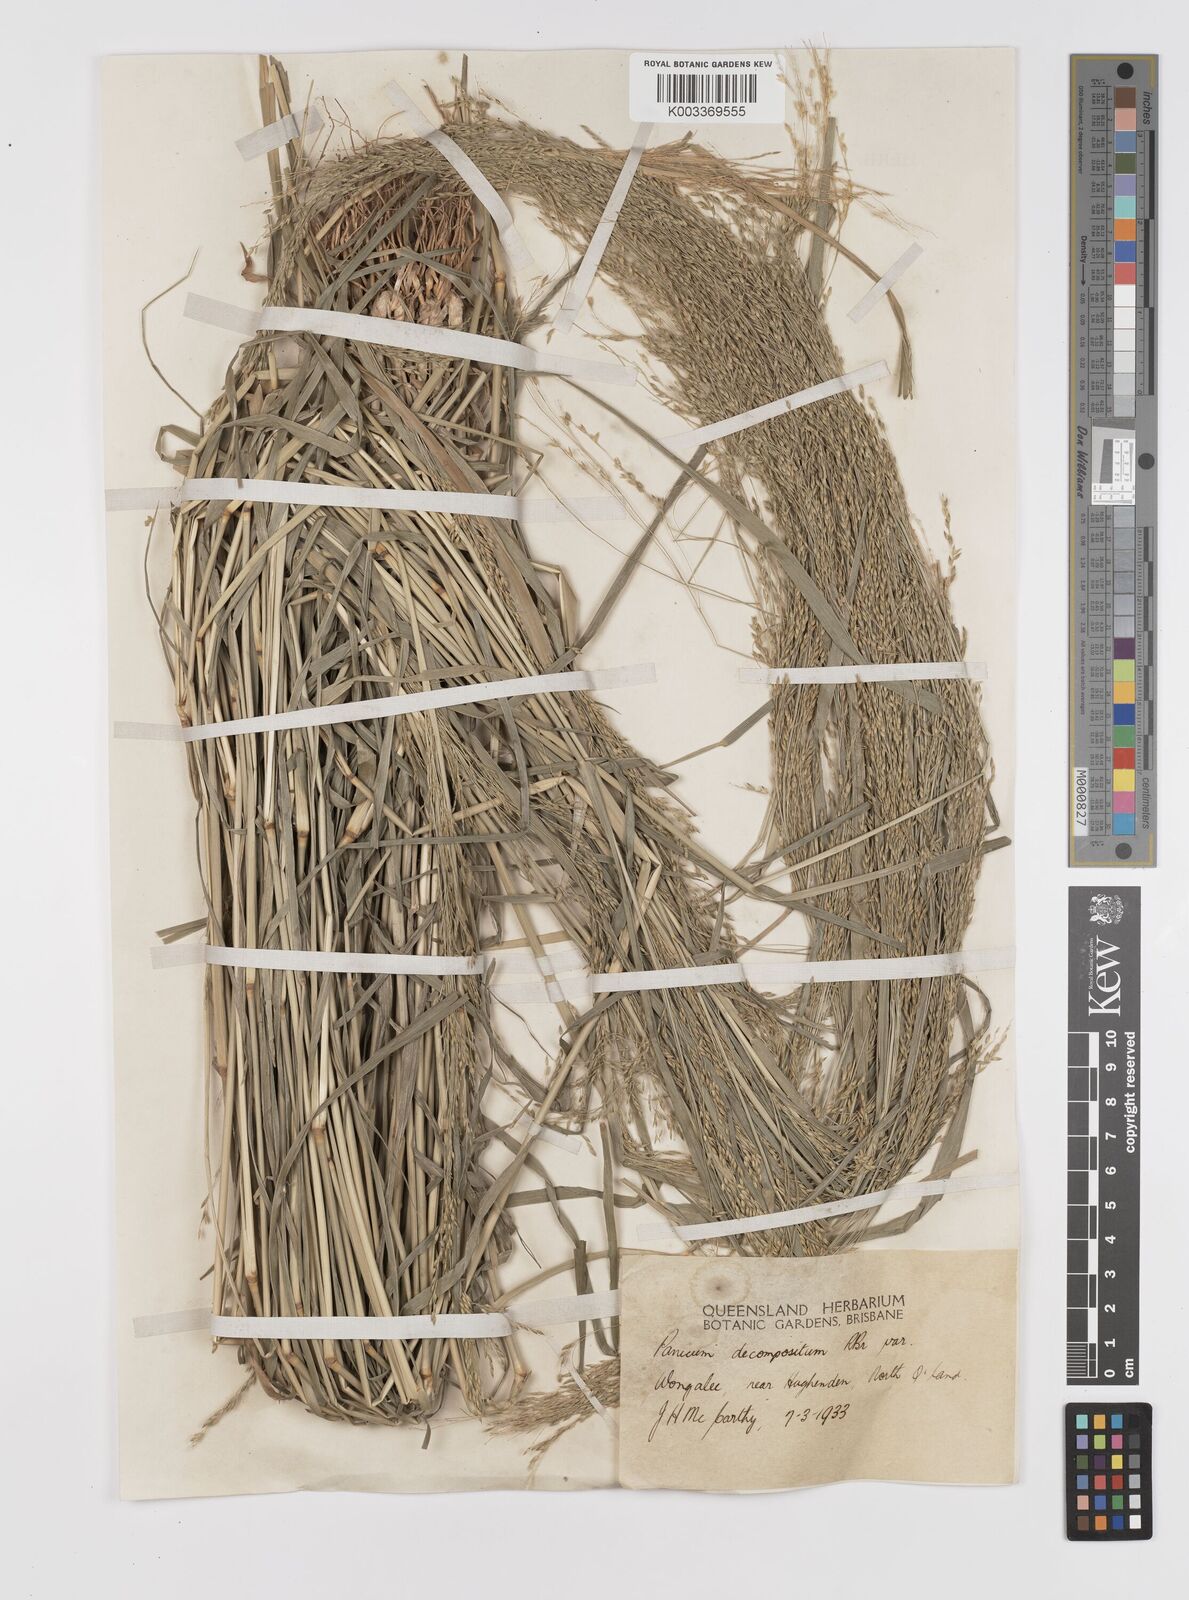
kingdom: Plantae
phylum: Tracheophyta
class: Liliopsida
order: Poales
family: Poaceae
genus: Panicum
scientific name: Panicum decompositum
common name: Australian millet
